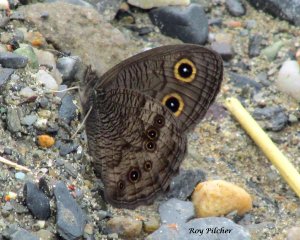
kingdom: Animalia
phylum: Arthropoda
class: Insecta
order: Lepidoptera
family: Nymphalidae
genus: Cercyonis
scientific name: Cercyonis pegala
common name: Common Wood-Nymph
